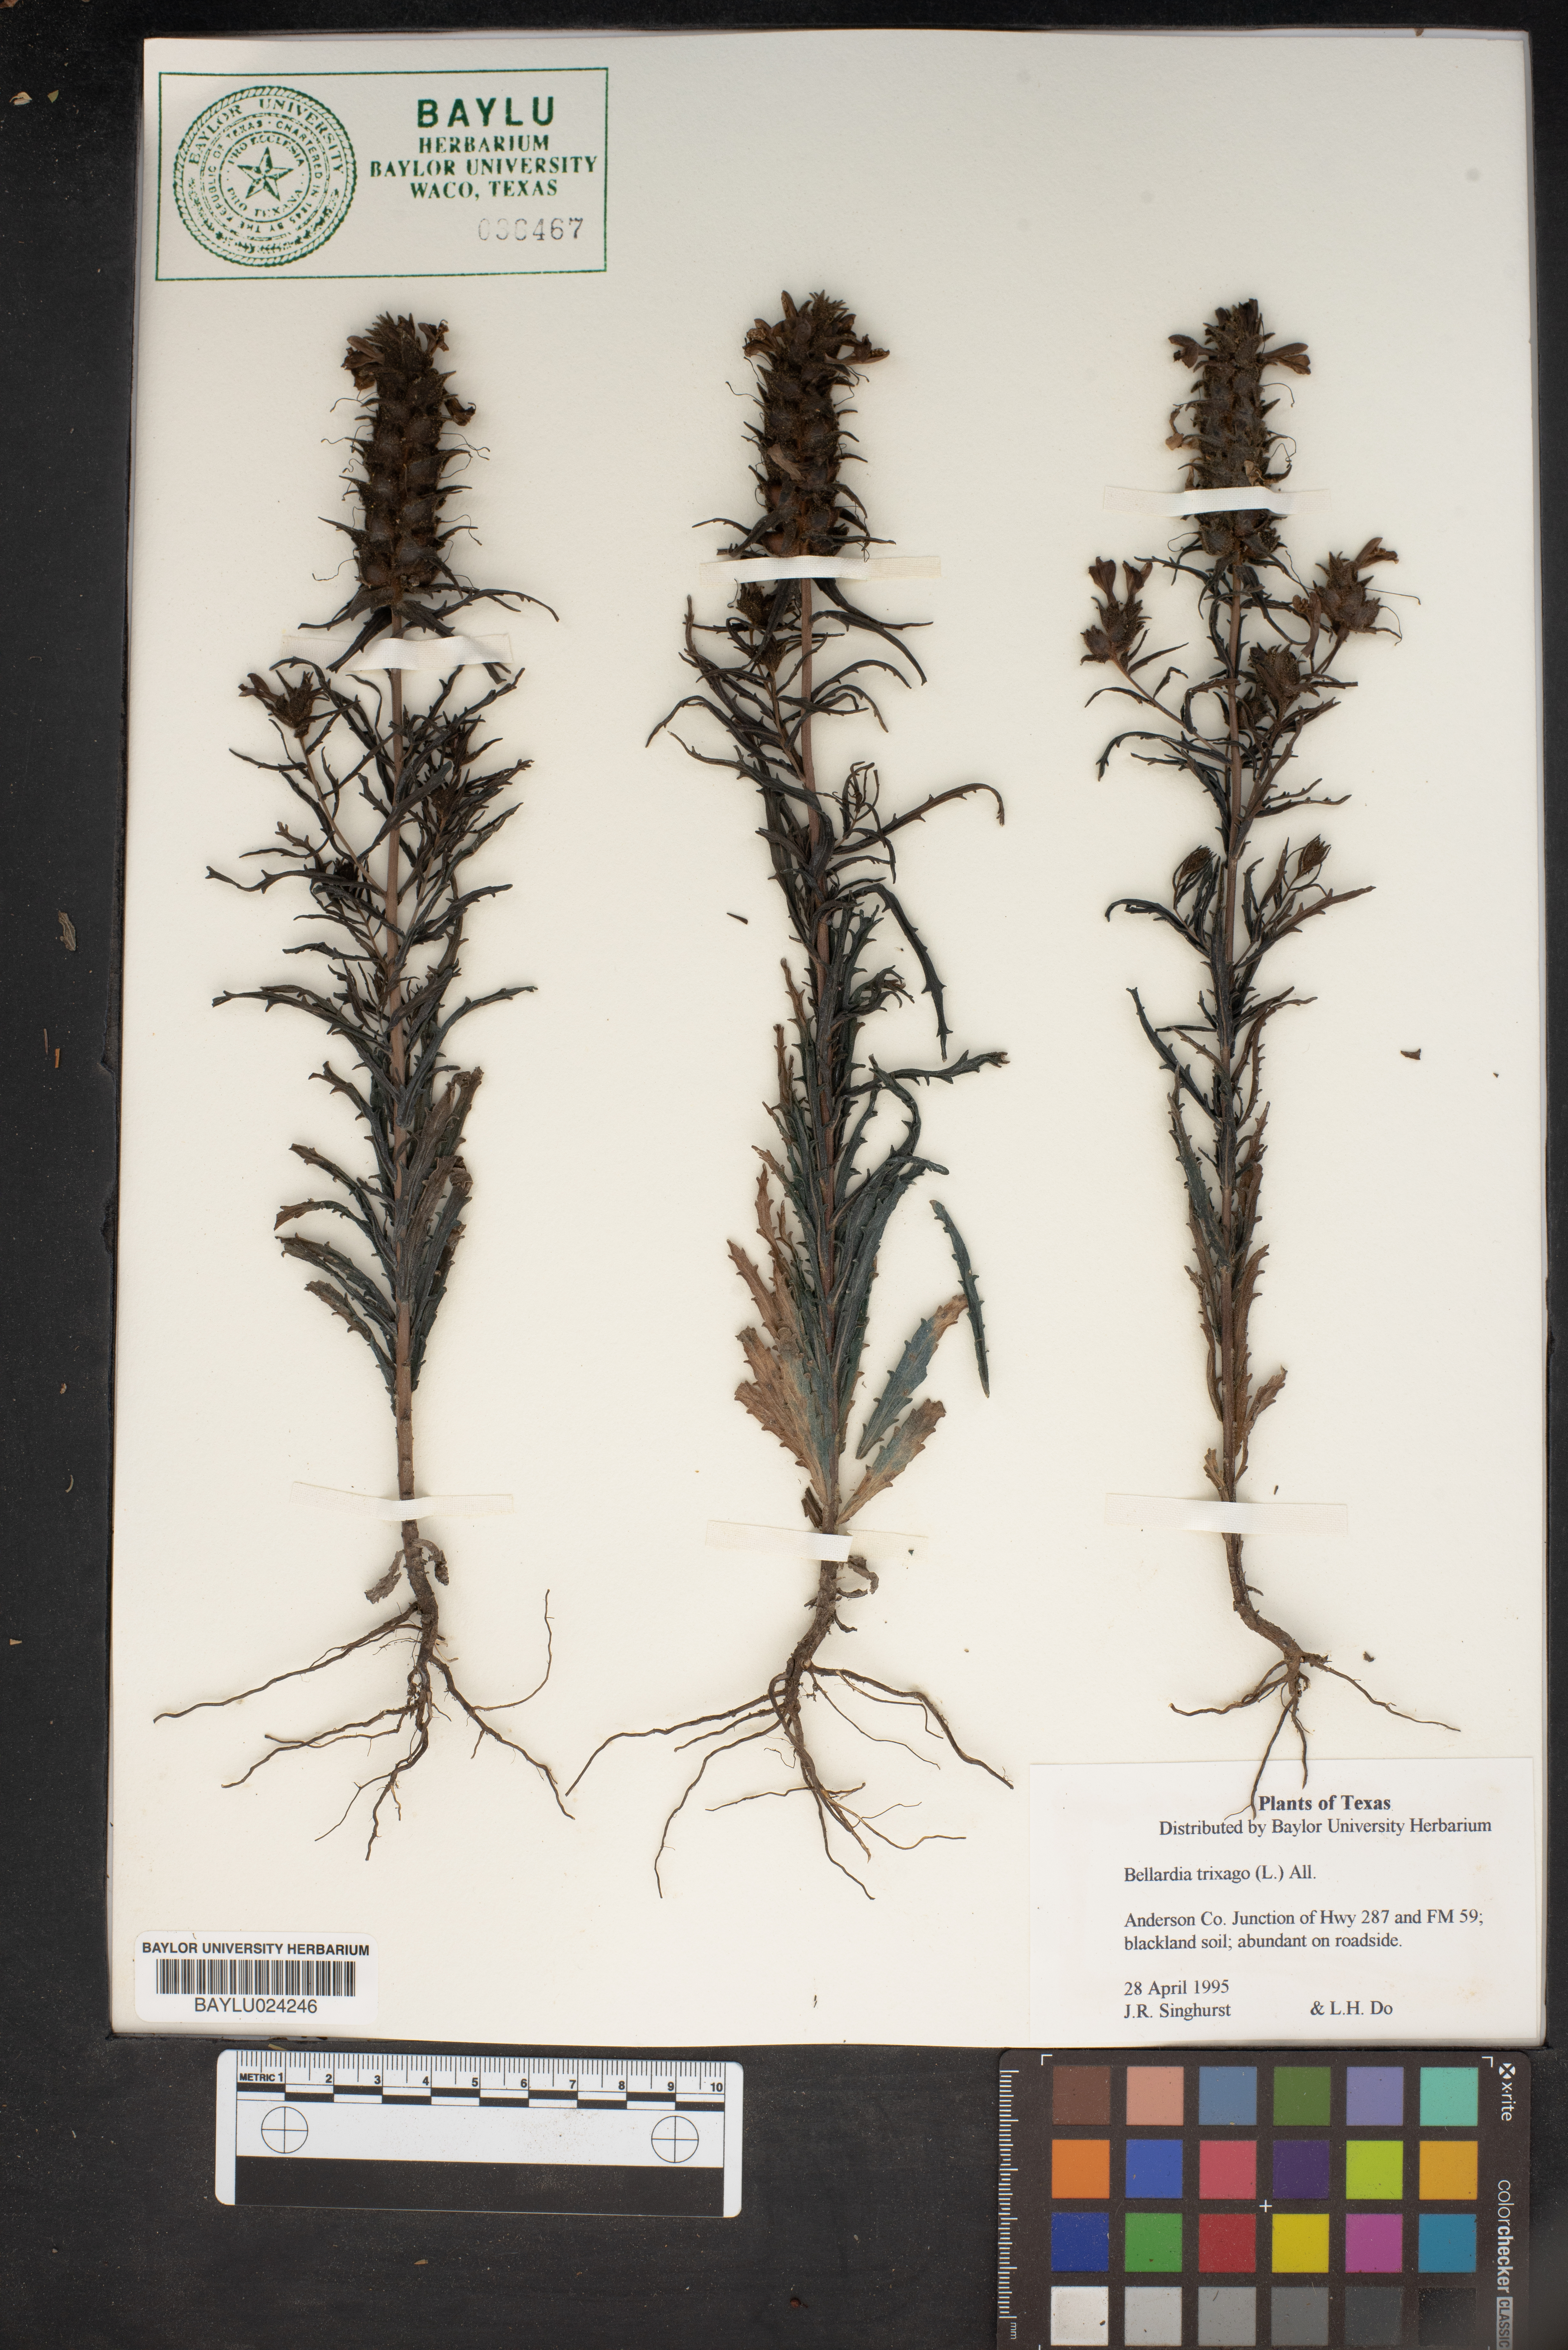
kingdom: Plantae
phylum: Tracheophyta
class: Magnoliopsida
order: Lamiales
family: Orobanchaceae
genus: Bellardia
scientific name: Bellardia trixago
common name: Mediterranean lineseed
